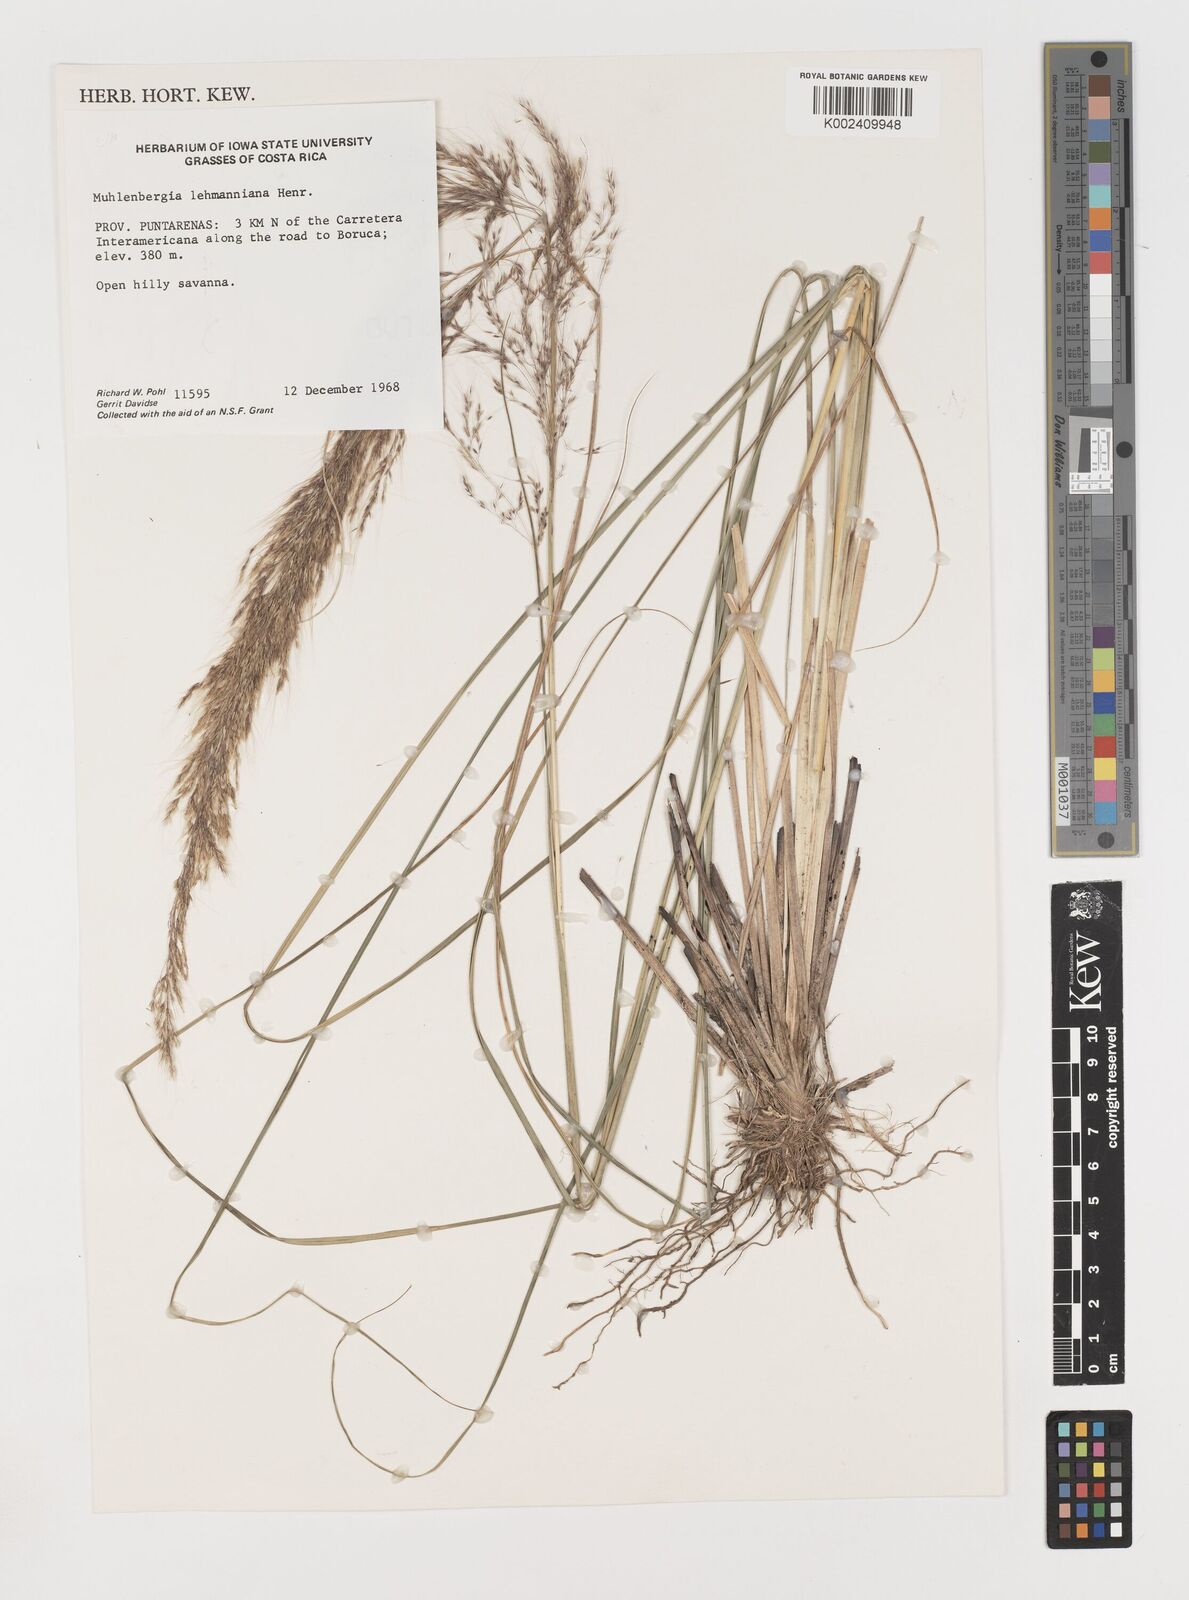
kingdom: Plantae
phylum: Tracheophyta
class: Liliopsida
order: Poales
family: Poaceae
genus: Muhlenbergia
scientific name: Muhlenbergia lehmanniana
